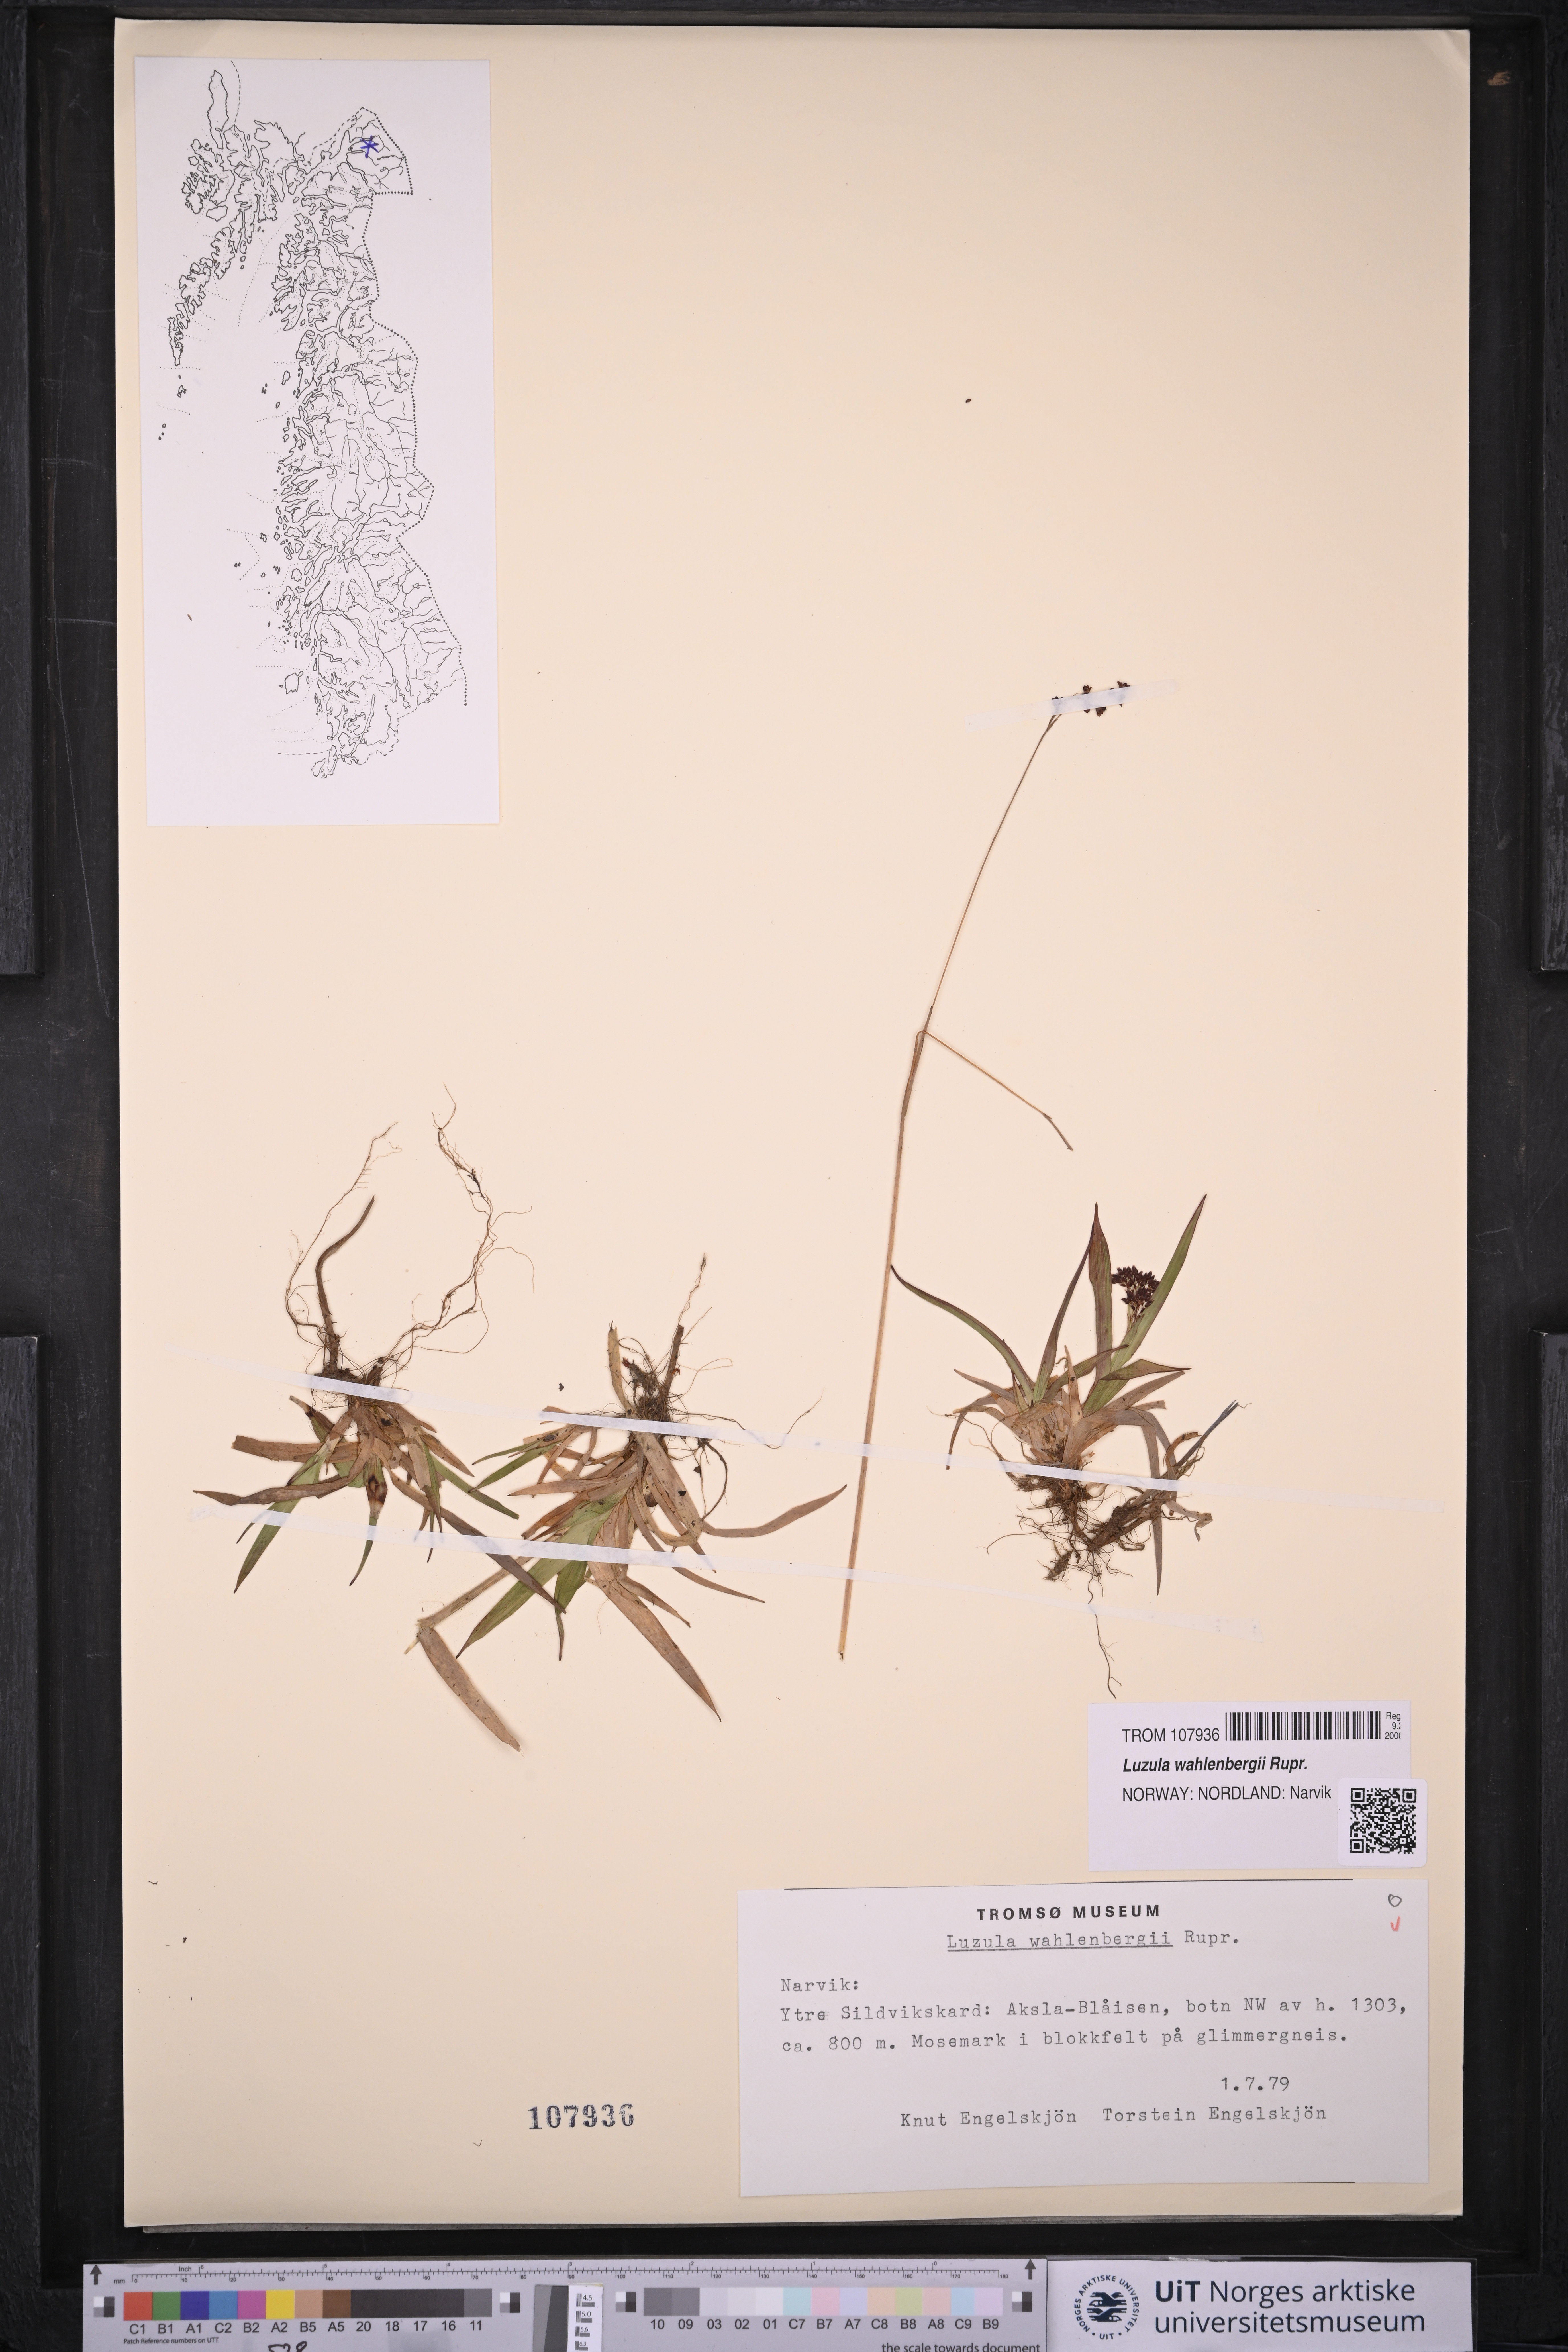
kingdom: Plantae
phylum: Tracheophyta
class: Liliopsida
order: Poales
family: Juncaceae
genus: Luzula
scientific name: Luzula wahlenbergii
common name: Wahlenberg's wood-rush
